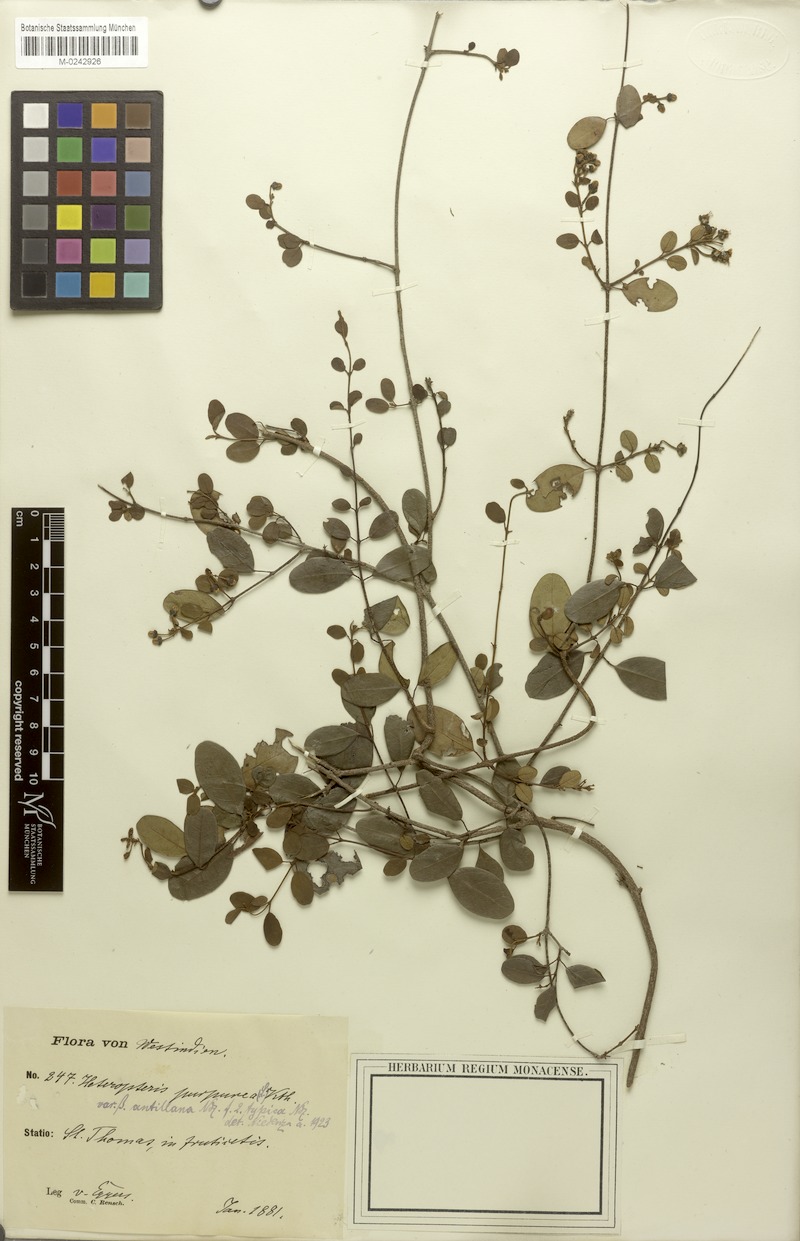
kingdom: Plantae
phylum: Tracheophyta
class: Magnoliopsida
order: Malpighiales
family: Malpighiaceae
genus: Heteropterys
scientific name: Heteropterys purpurea
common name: Bull withe
